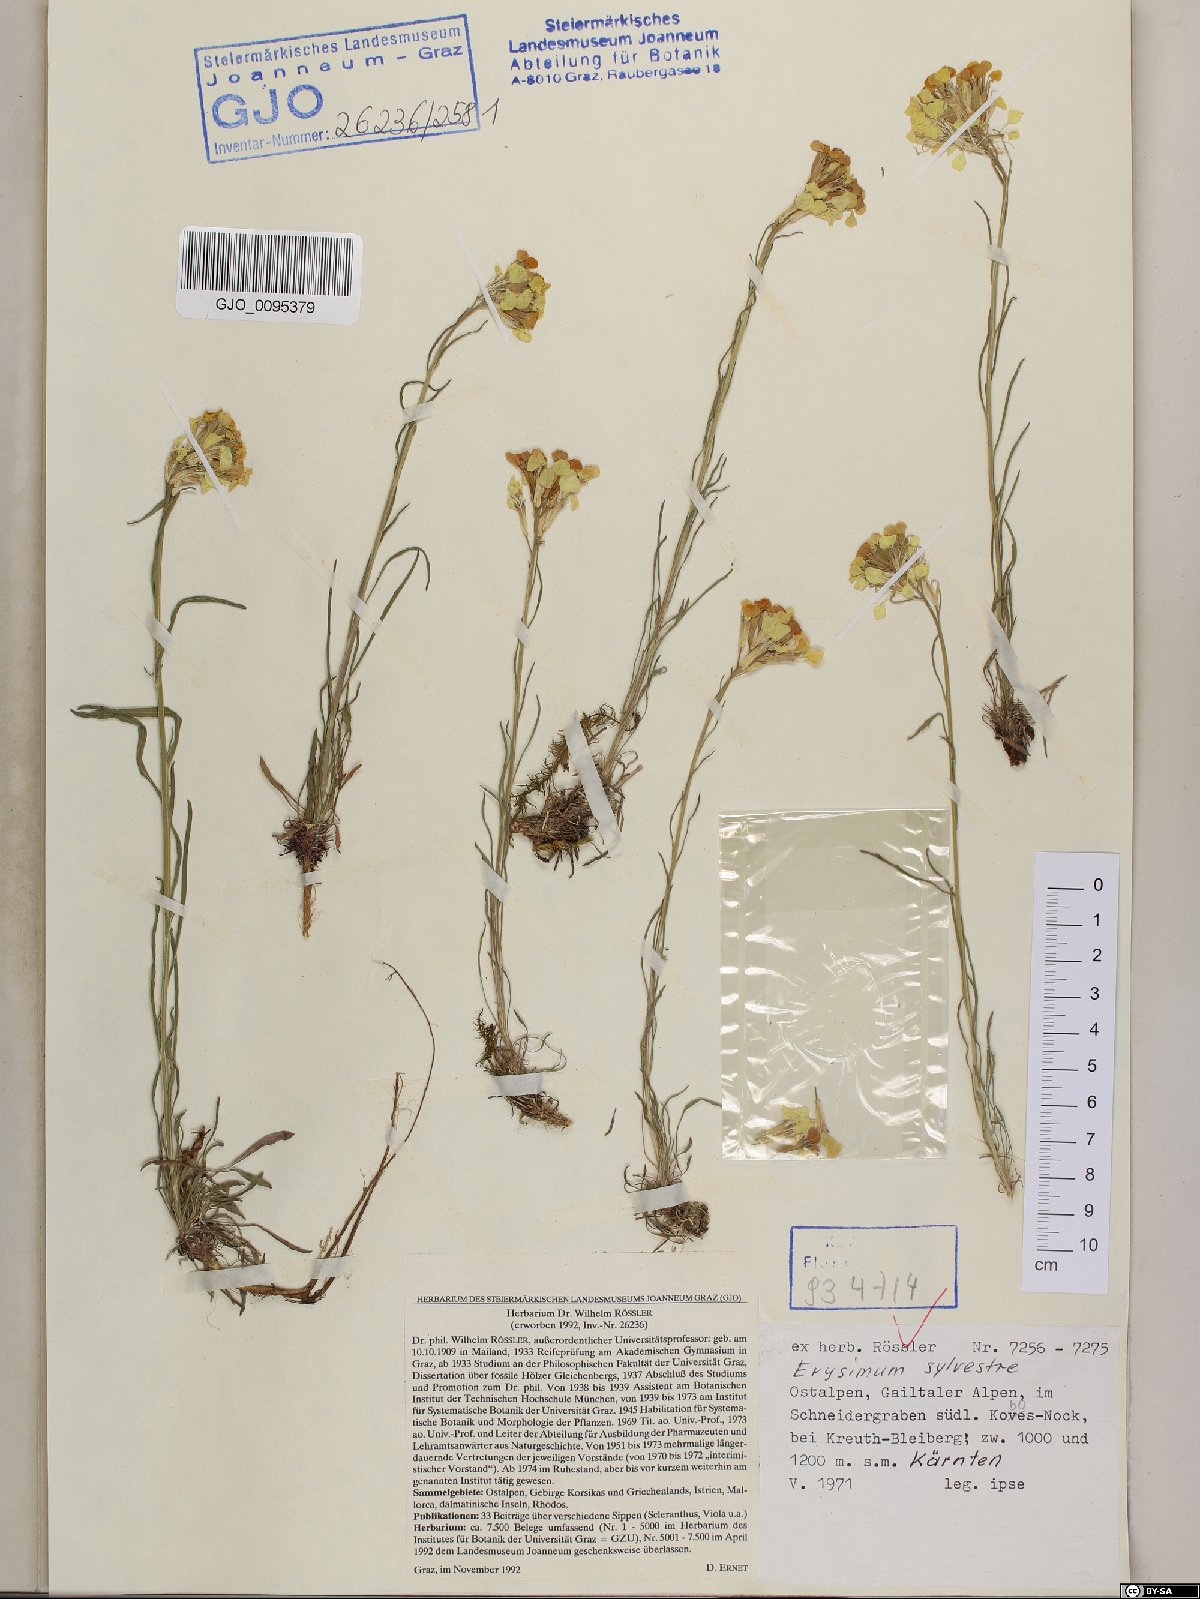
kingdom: Plantae
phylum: Tracheophyta
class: Magnoliopsida
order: Brassicales
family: Brassicaceae
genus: Erysimum
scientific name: Erysimum sylvestre
